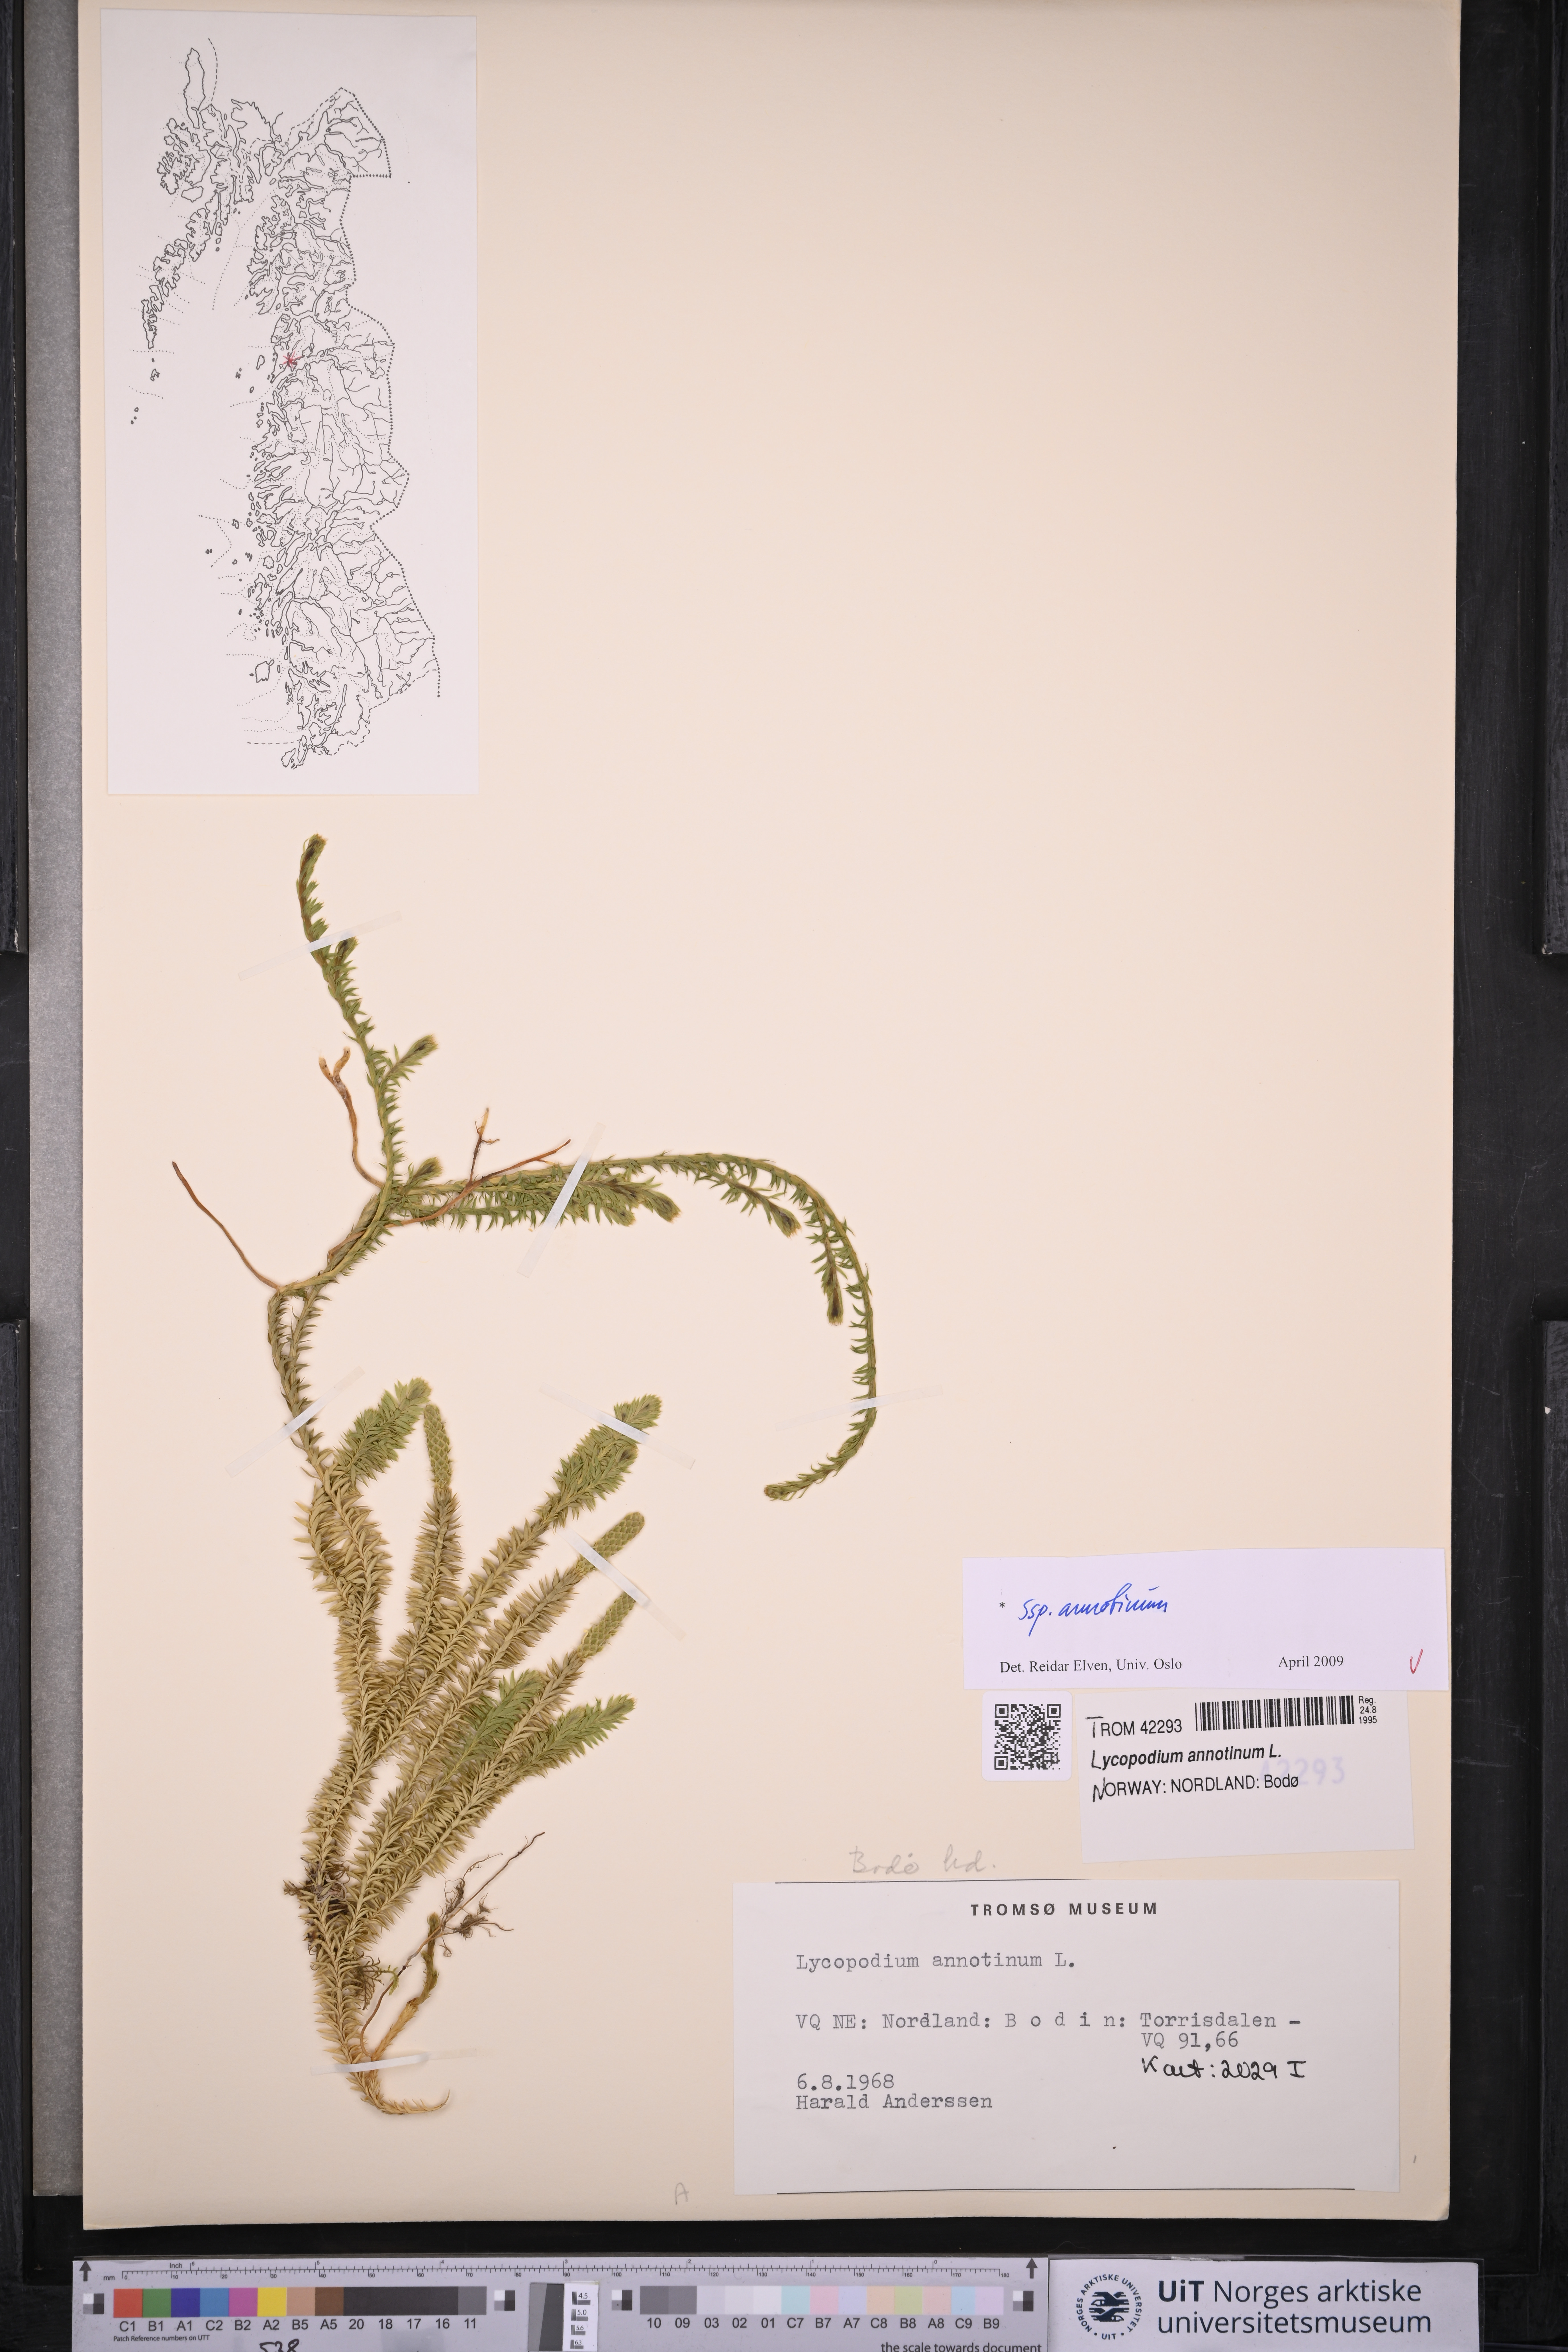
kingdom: Plantae
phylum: Tracheophyta
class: Lycopodiopsida
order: Lycopodiales
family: Lycopodiaceae
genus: Spinulum
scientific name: Spinulum annotinum
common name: Interrupted club-moss
